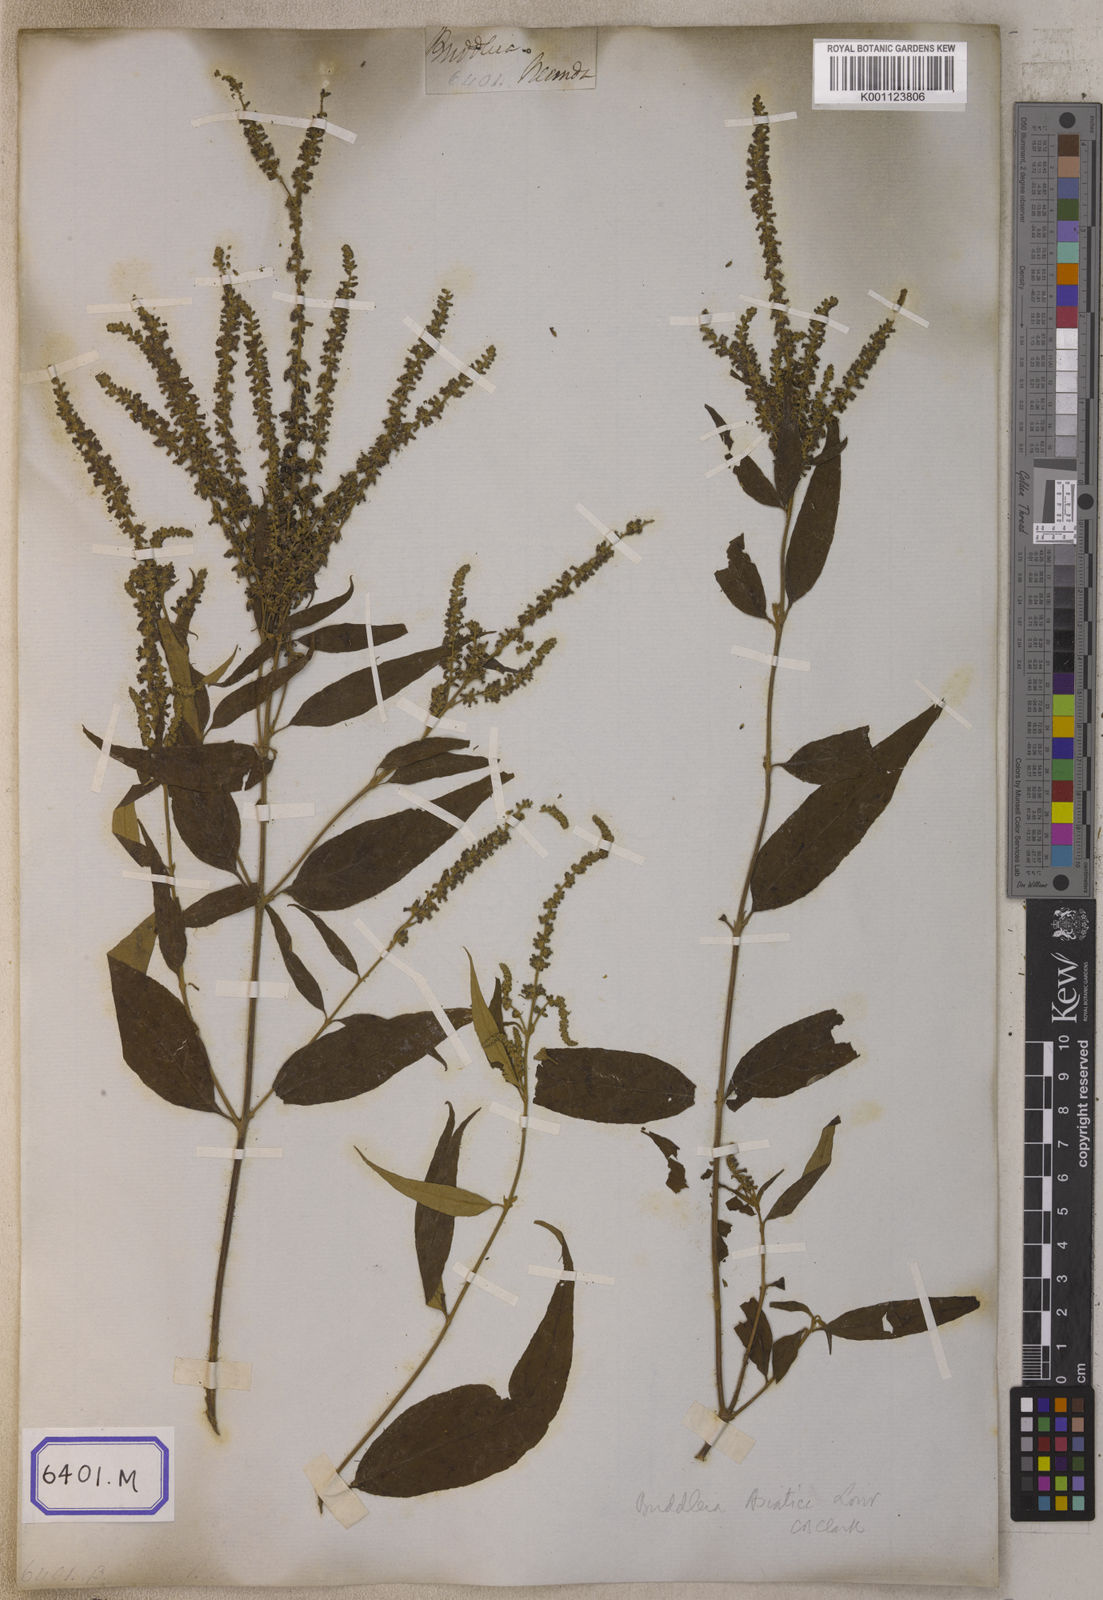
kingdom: Plantae
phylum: Tracheophyta
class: Magnoliopsida
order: Lamiales
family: Scrophulariaceae
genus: Buddleja
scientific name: Buddleja
